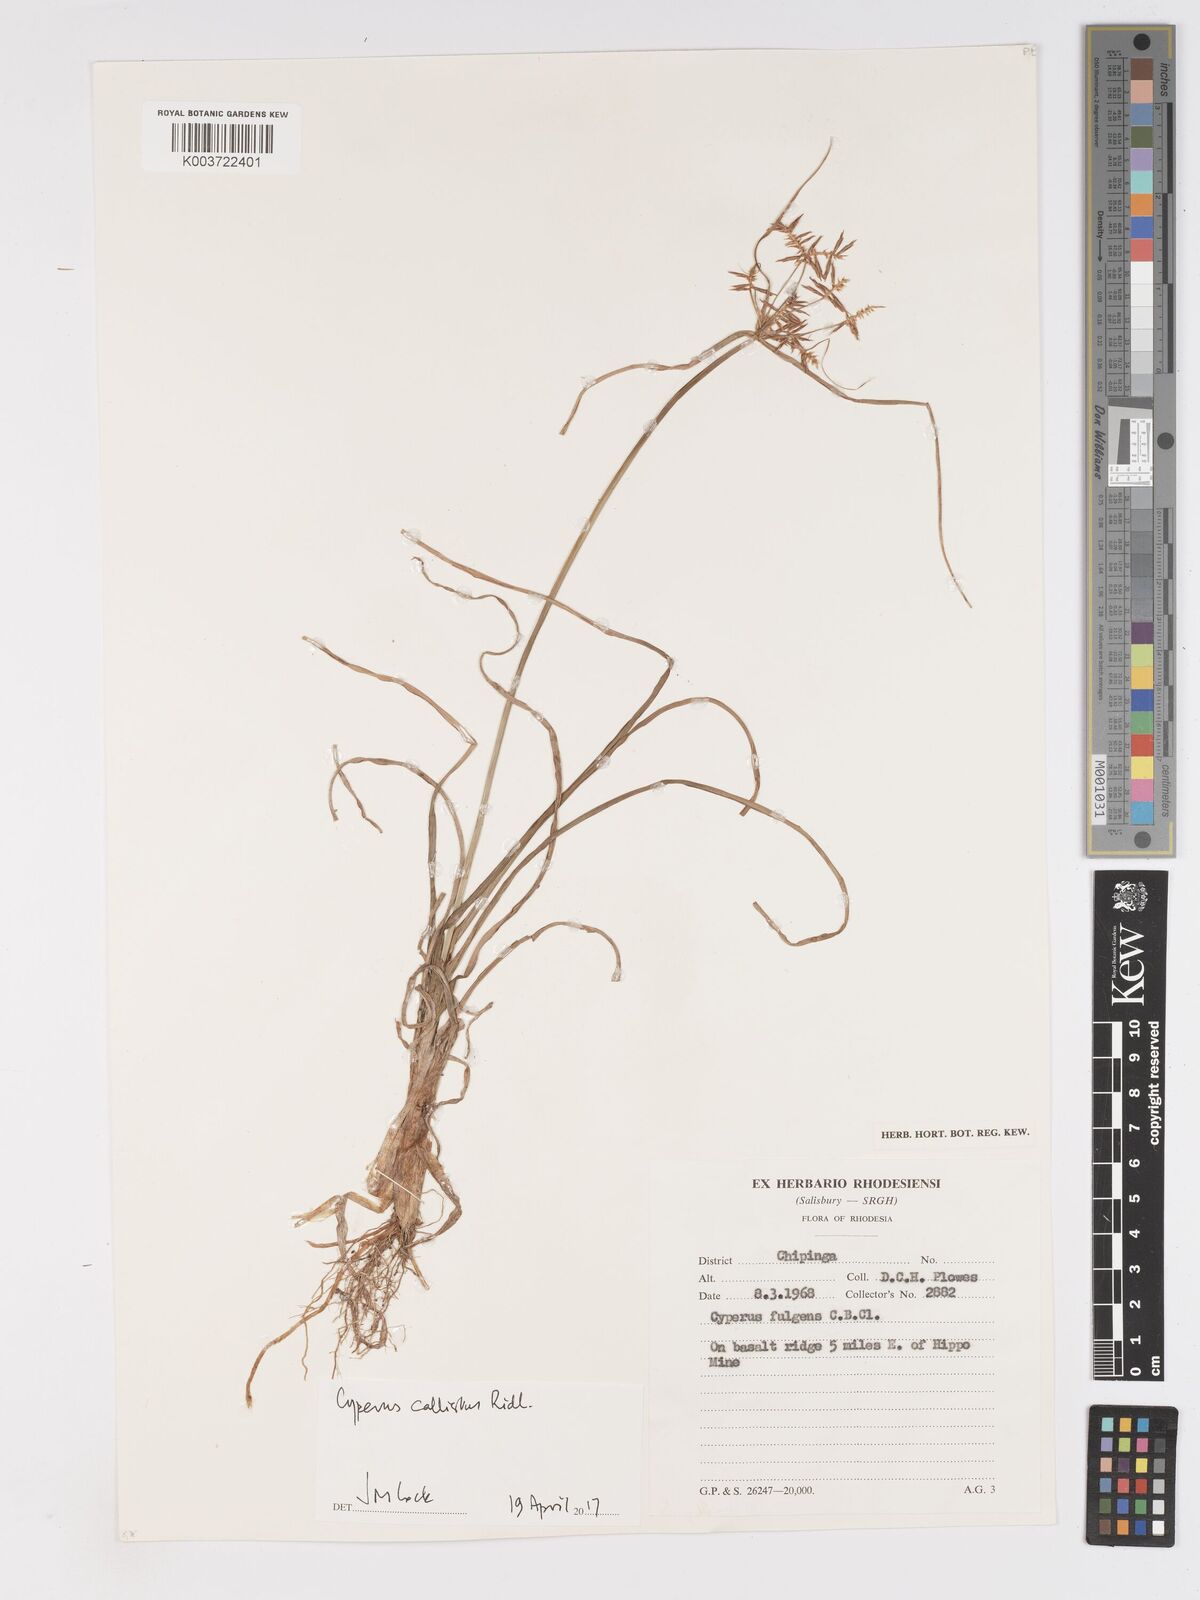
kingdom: Plantae
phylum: Tracheophyta
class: Liliopsida
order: Poales
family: Cyperaceae
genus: Cyperus
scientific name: Cyperus callistus
